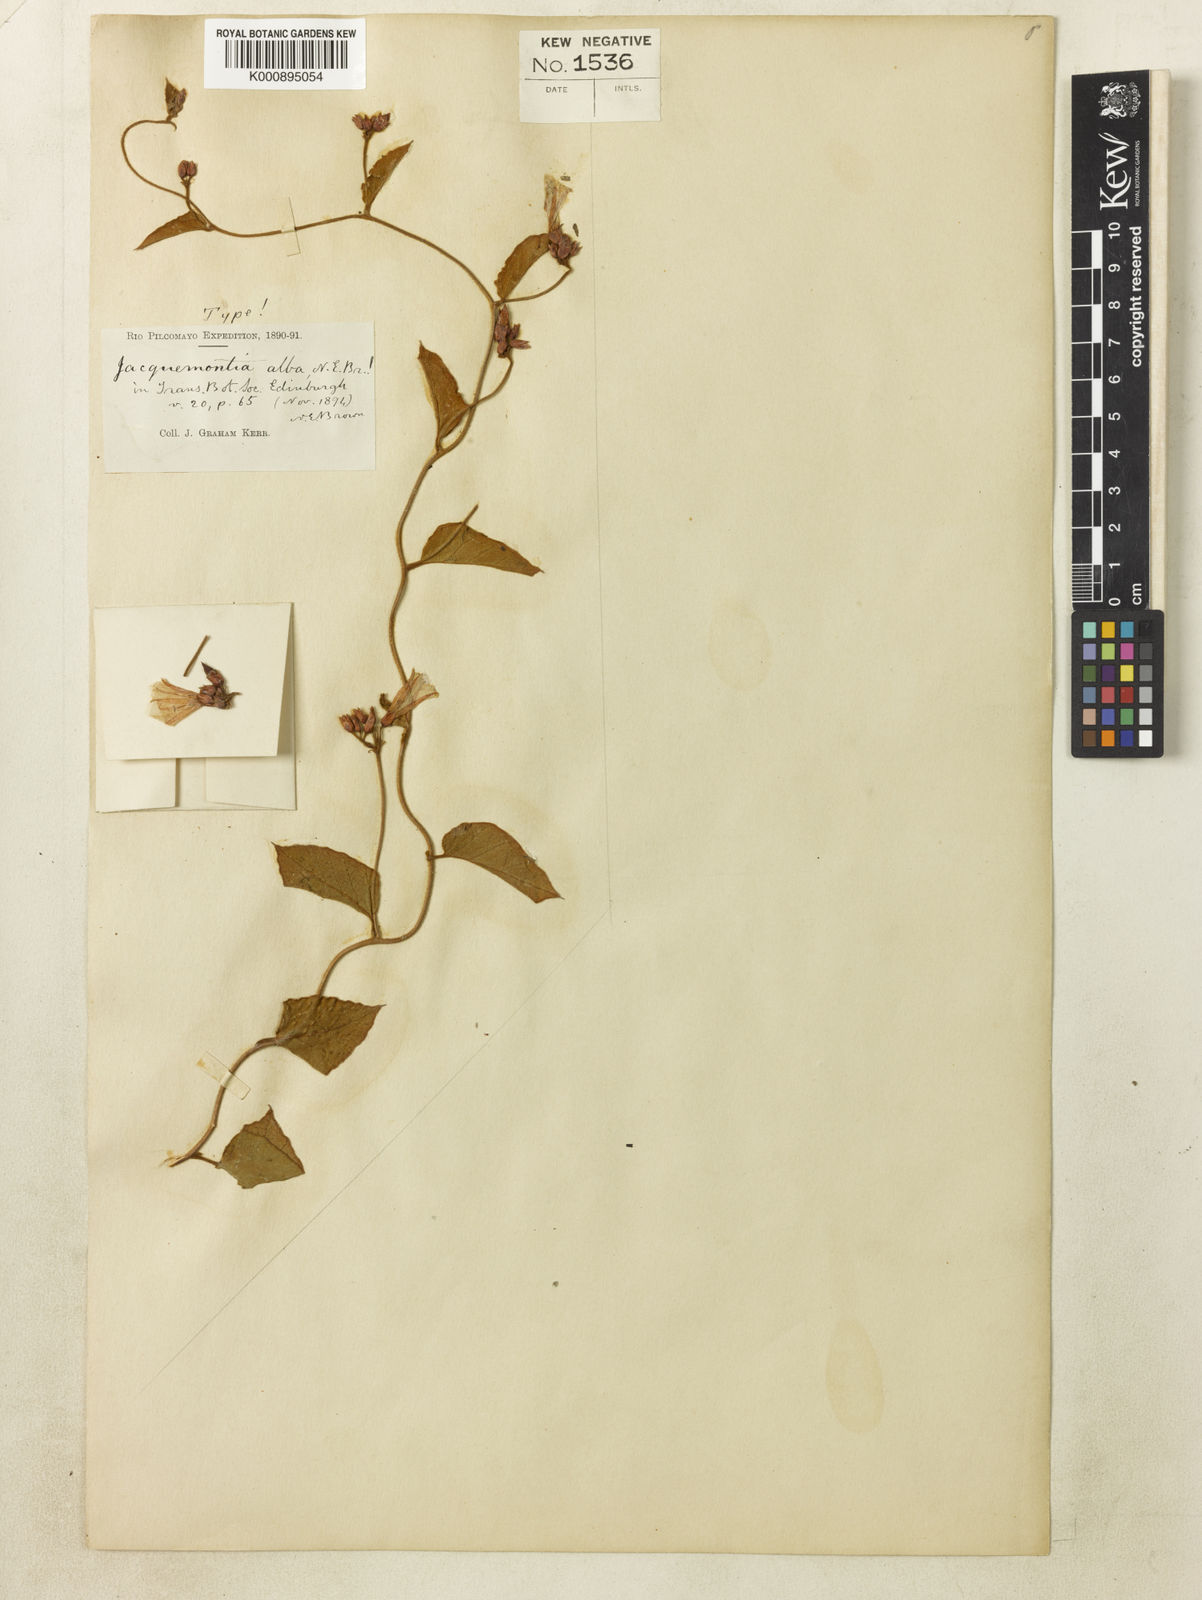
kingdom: Plantae
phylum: Tracheophyta
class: Magnoliopsida
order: Solanales
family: Convolvulaceae
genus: Jacquemontia
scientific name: Jacquemontia martii
